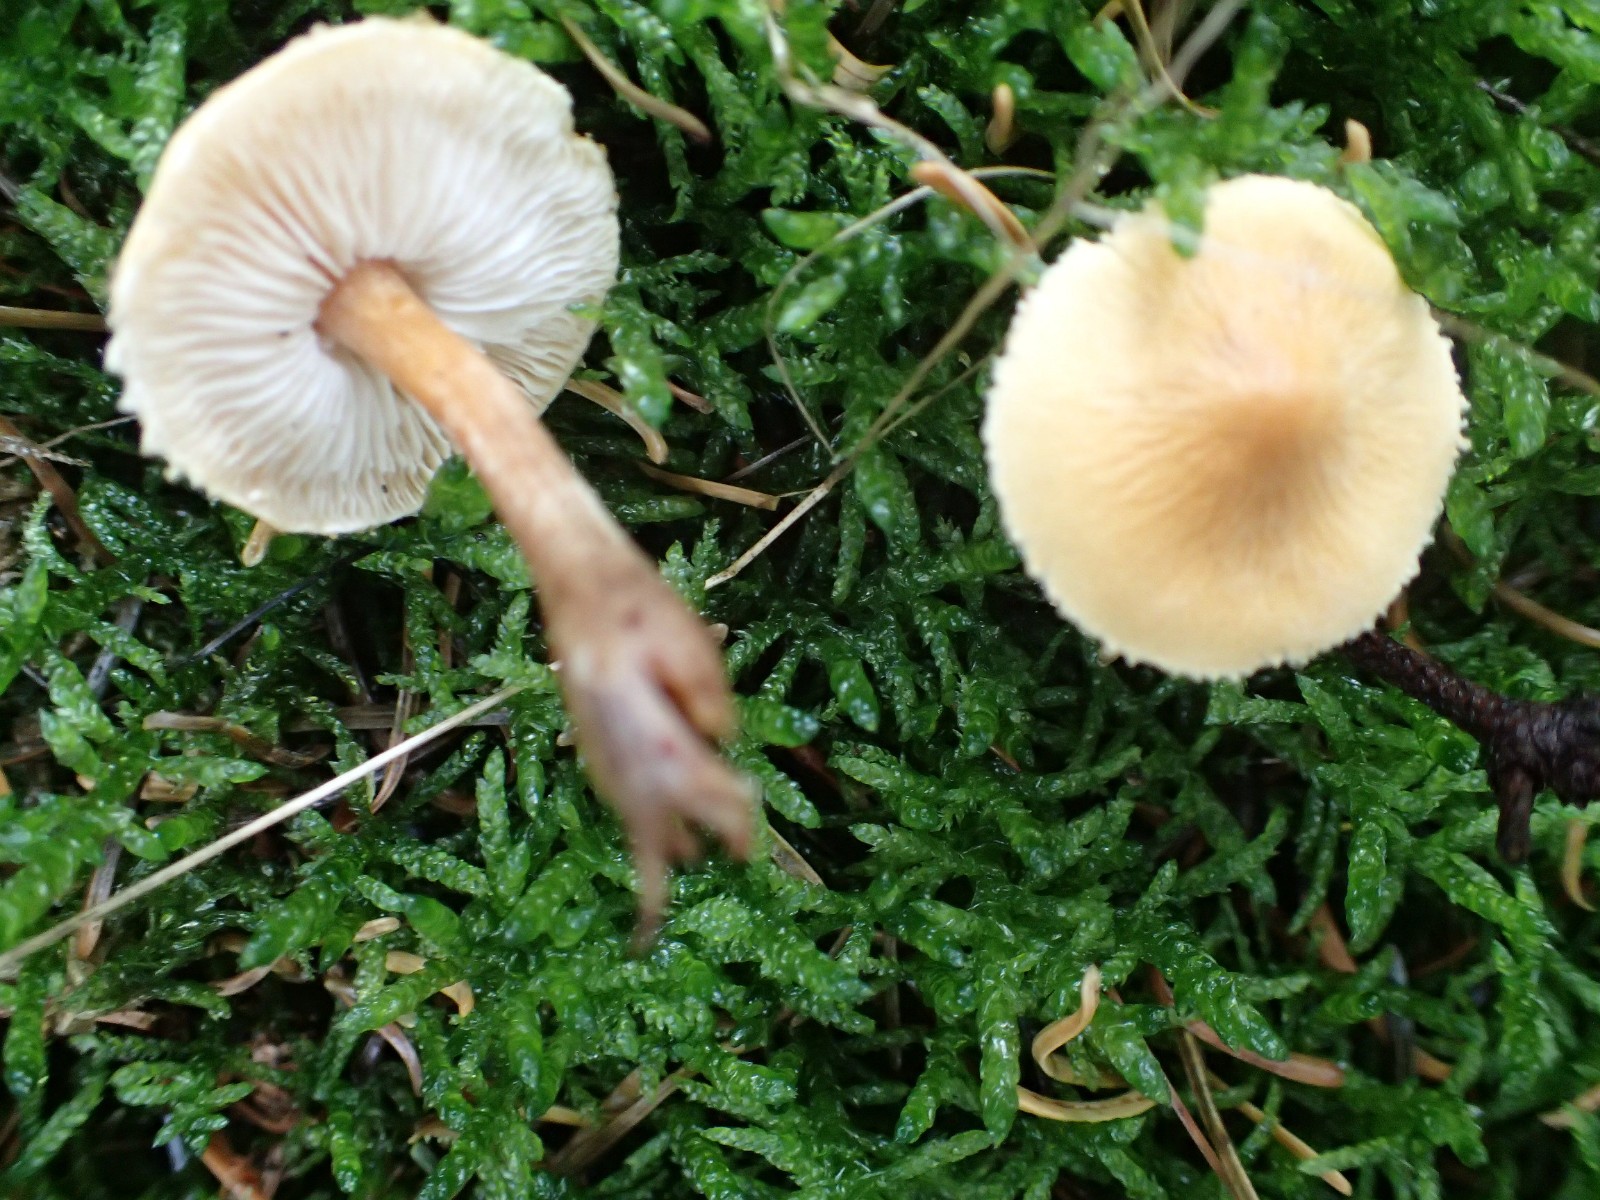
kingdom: Fungi
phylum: Basidiomycota
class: Agaricomycetes
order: Agaricales
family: Tricholomataceae
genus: Cystoderma
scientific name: Cystoderma amianthinum
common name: okkergul grynhat
